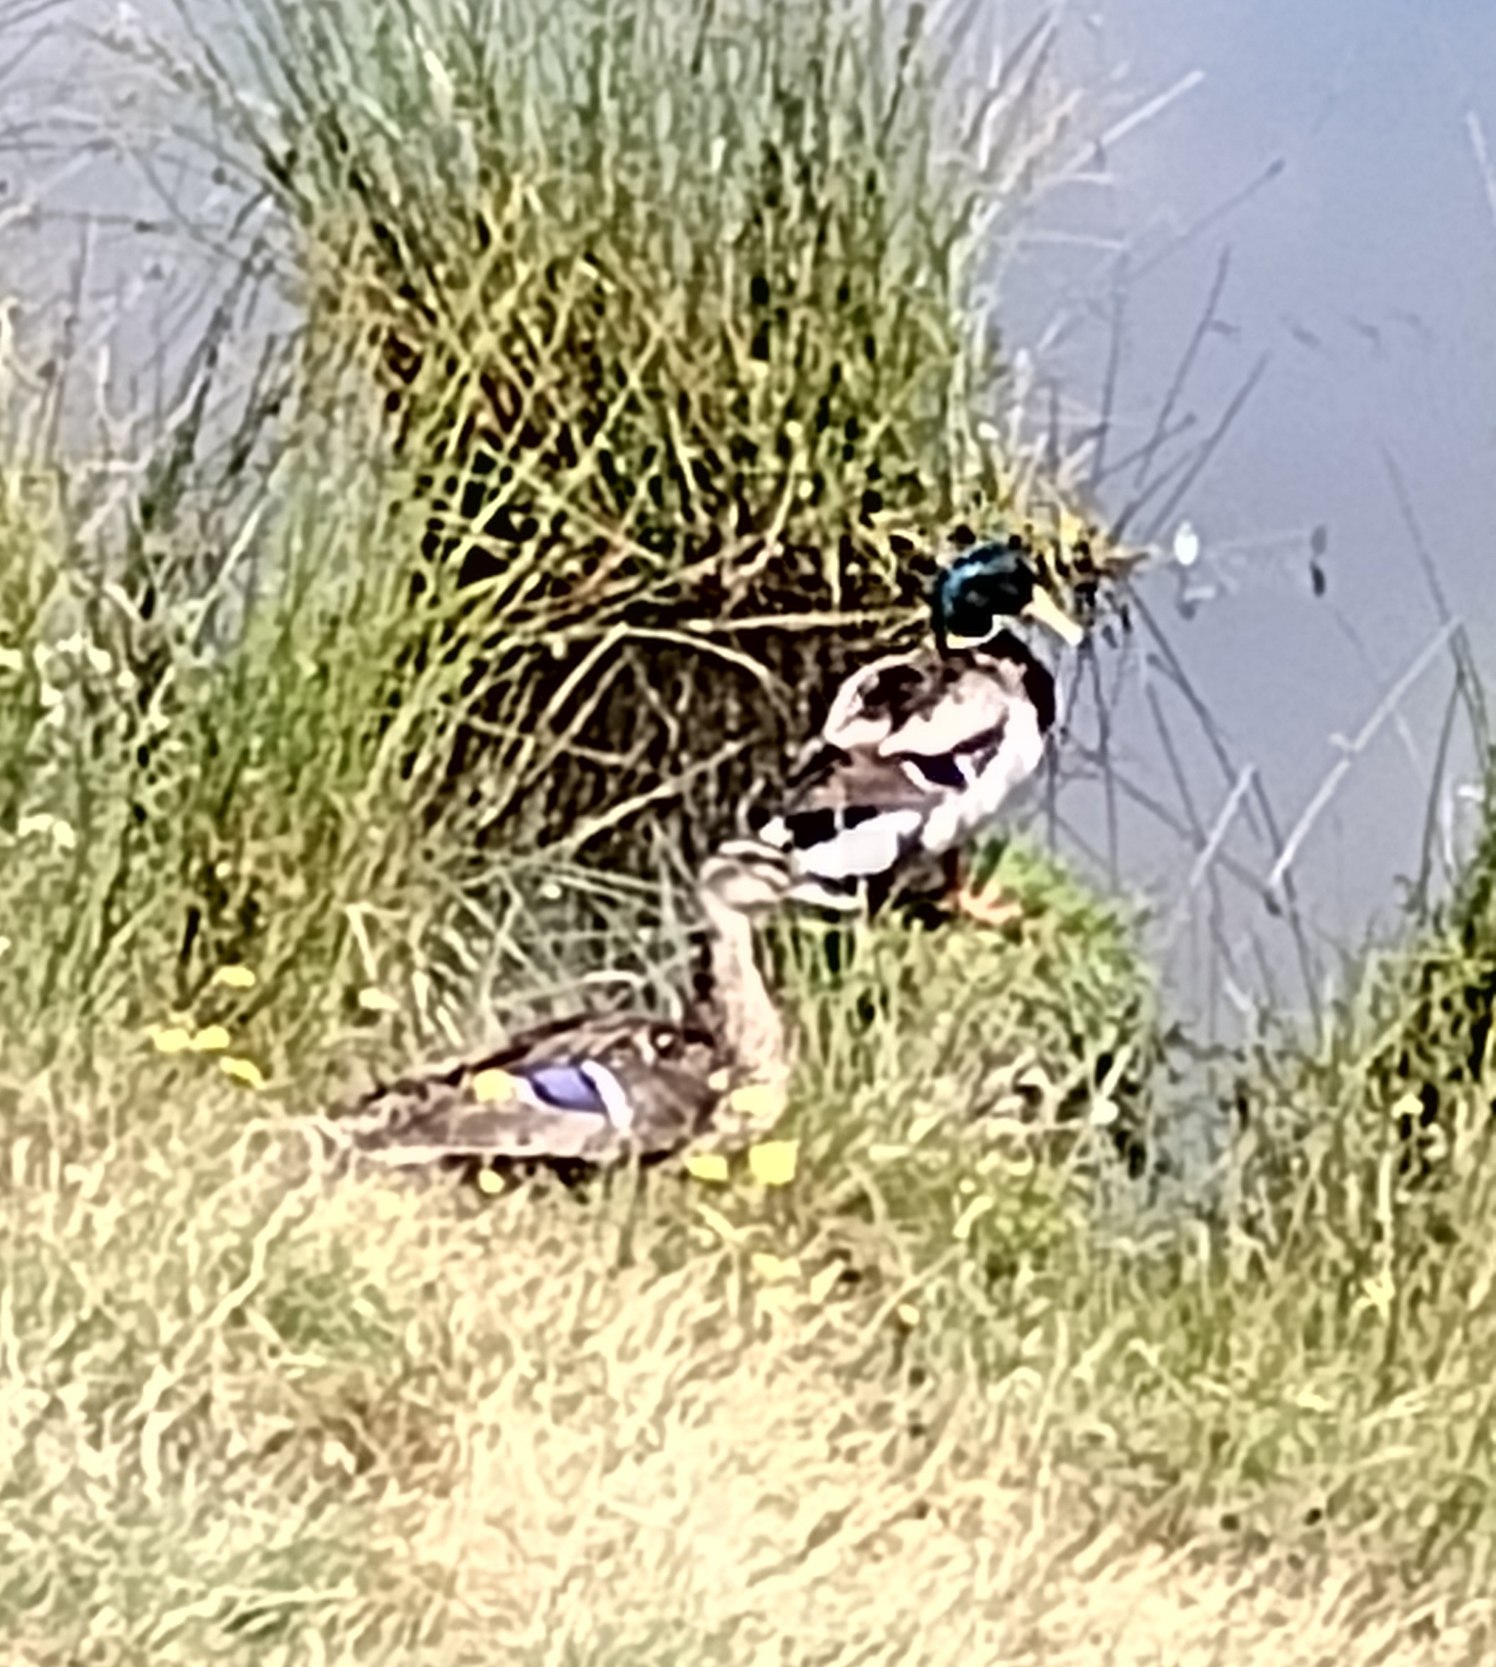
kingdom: Animalia
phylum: Chordata
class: Aves
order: Anseriformes
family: Anatidae
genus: Anas
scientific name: Anas platyrhynchos
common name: Gråand
